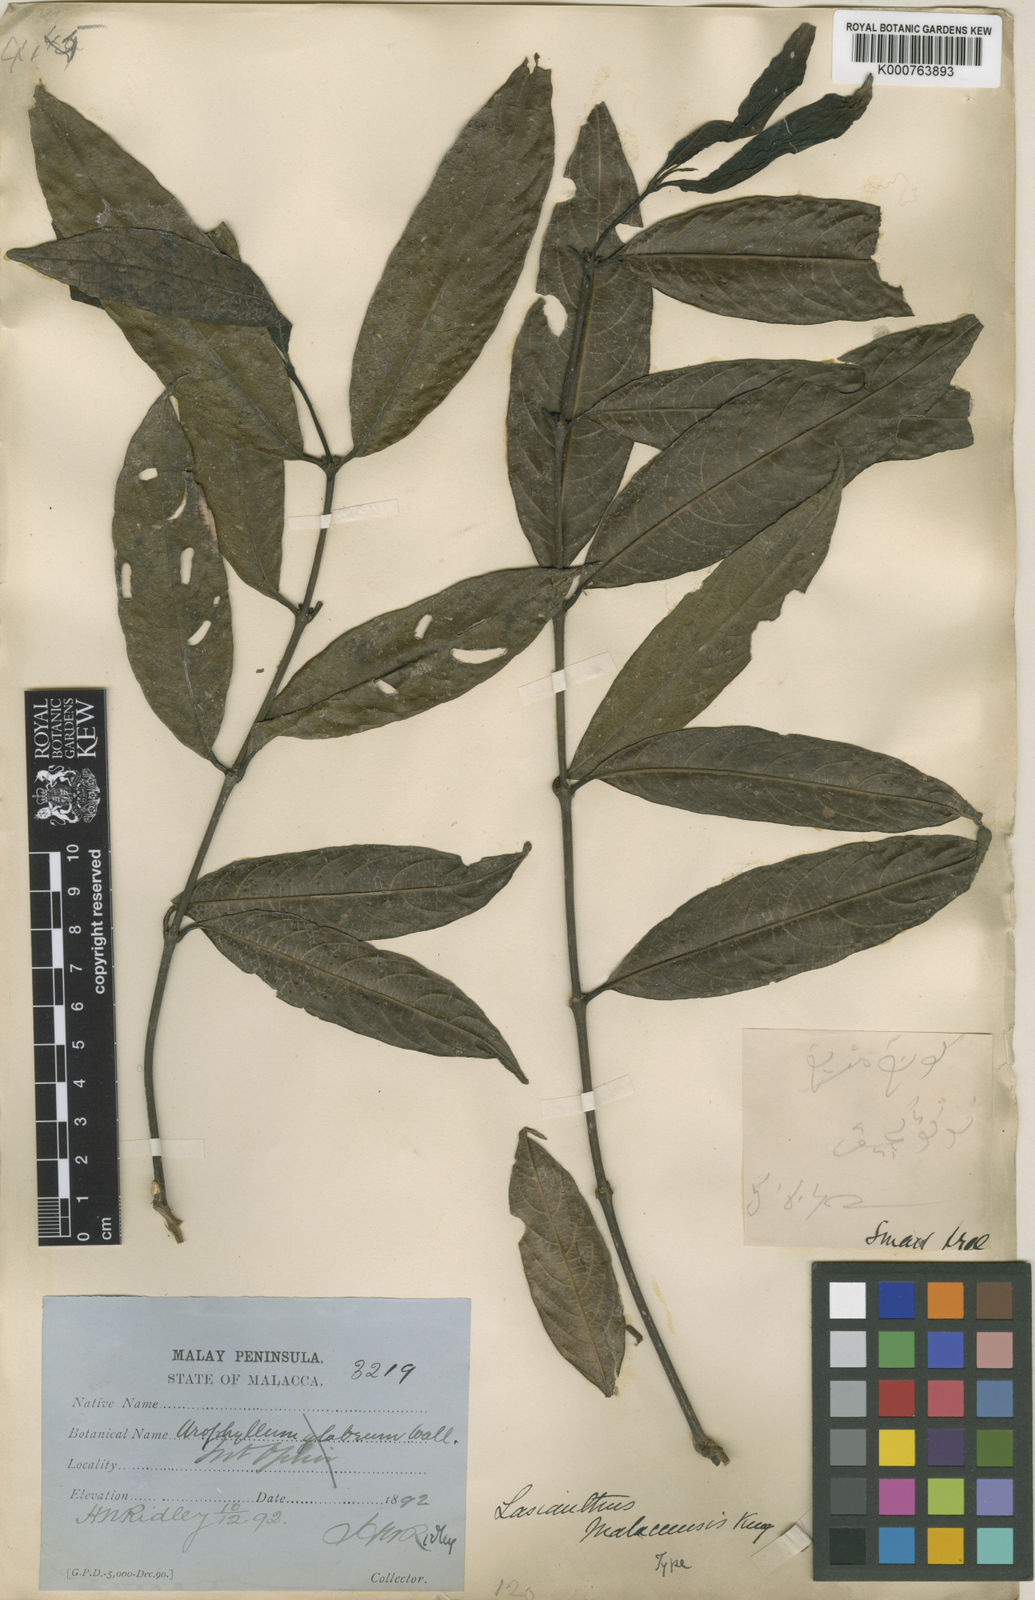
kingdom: Plantae
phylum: Tracheophyta
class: Magnoliopsida
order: Gentianales
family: Rubiaceae
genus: Lasianthus
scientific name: Lasianthus malaccensis
